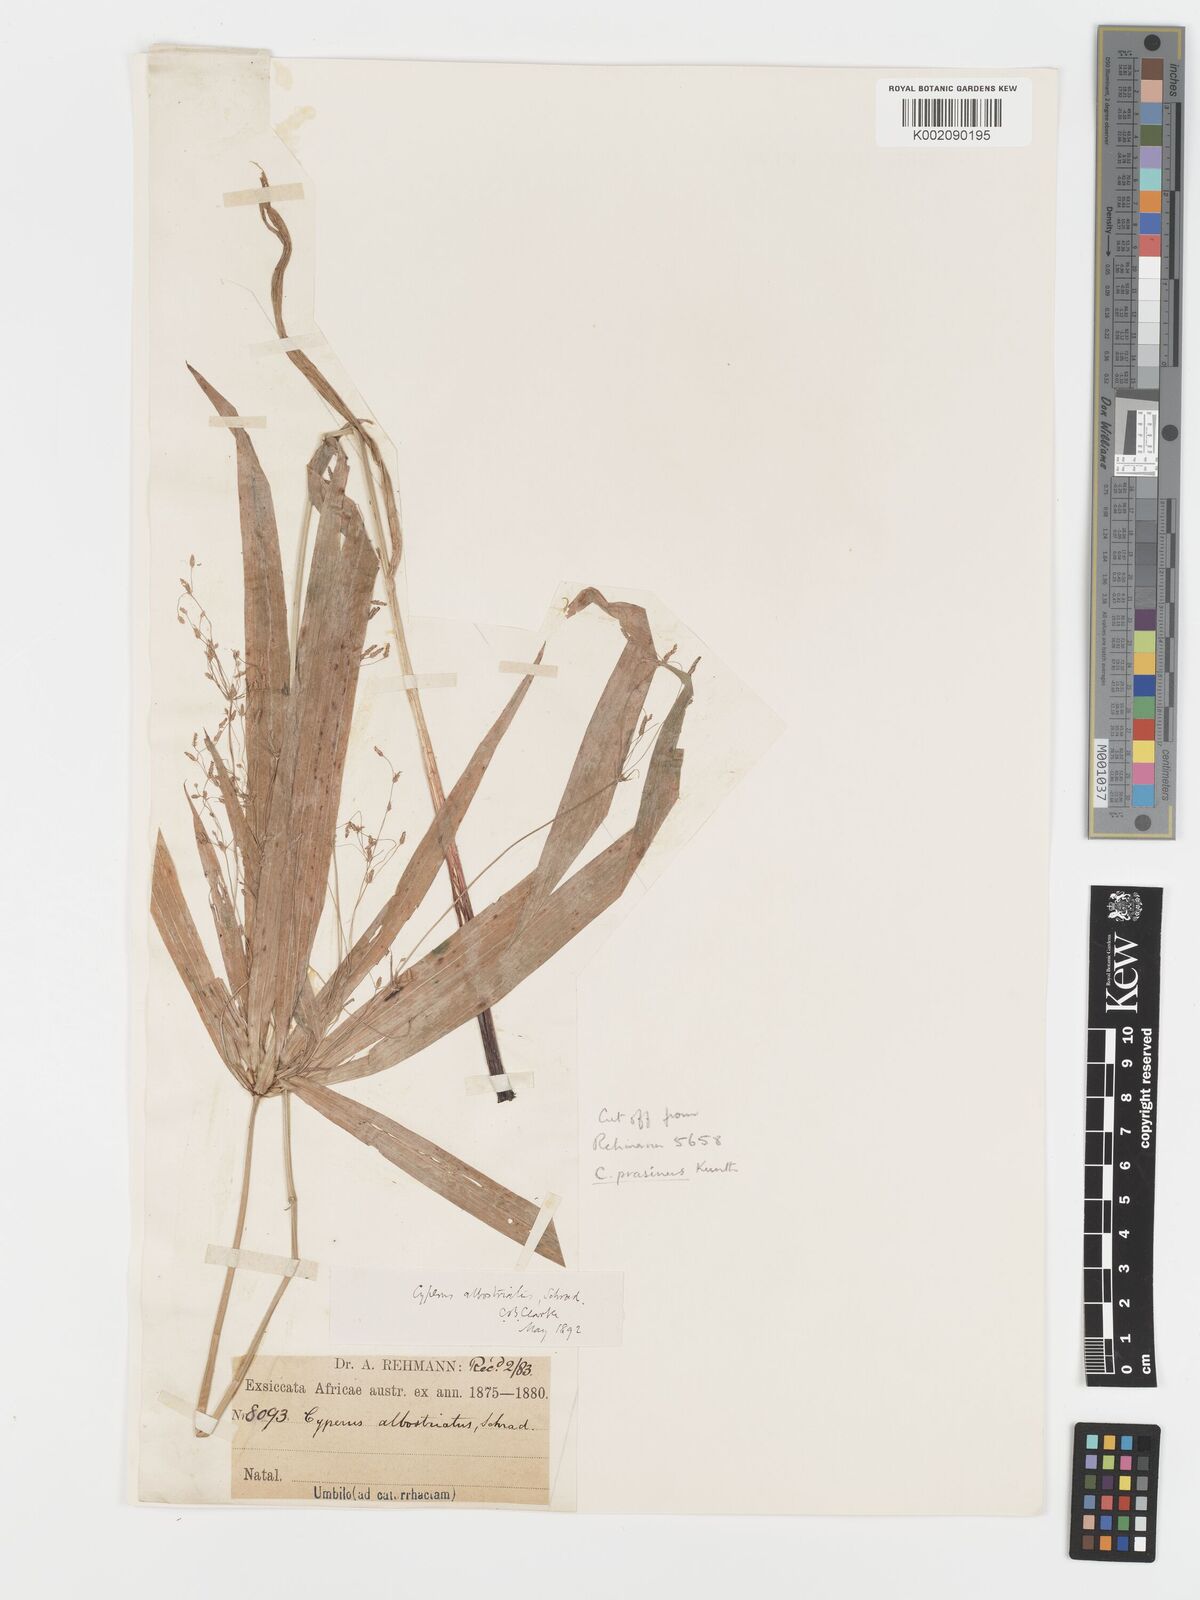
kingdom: Plantae
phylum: Tracheophyta
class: Liliopsida
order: Poales
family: Cyperaceae
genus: Cyperus
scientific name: Cyperus albostriatus
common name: Dwarf umbrella-grass
